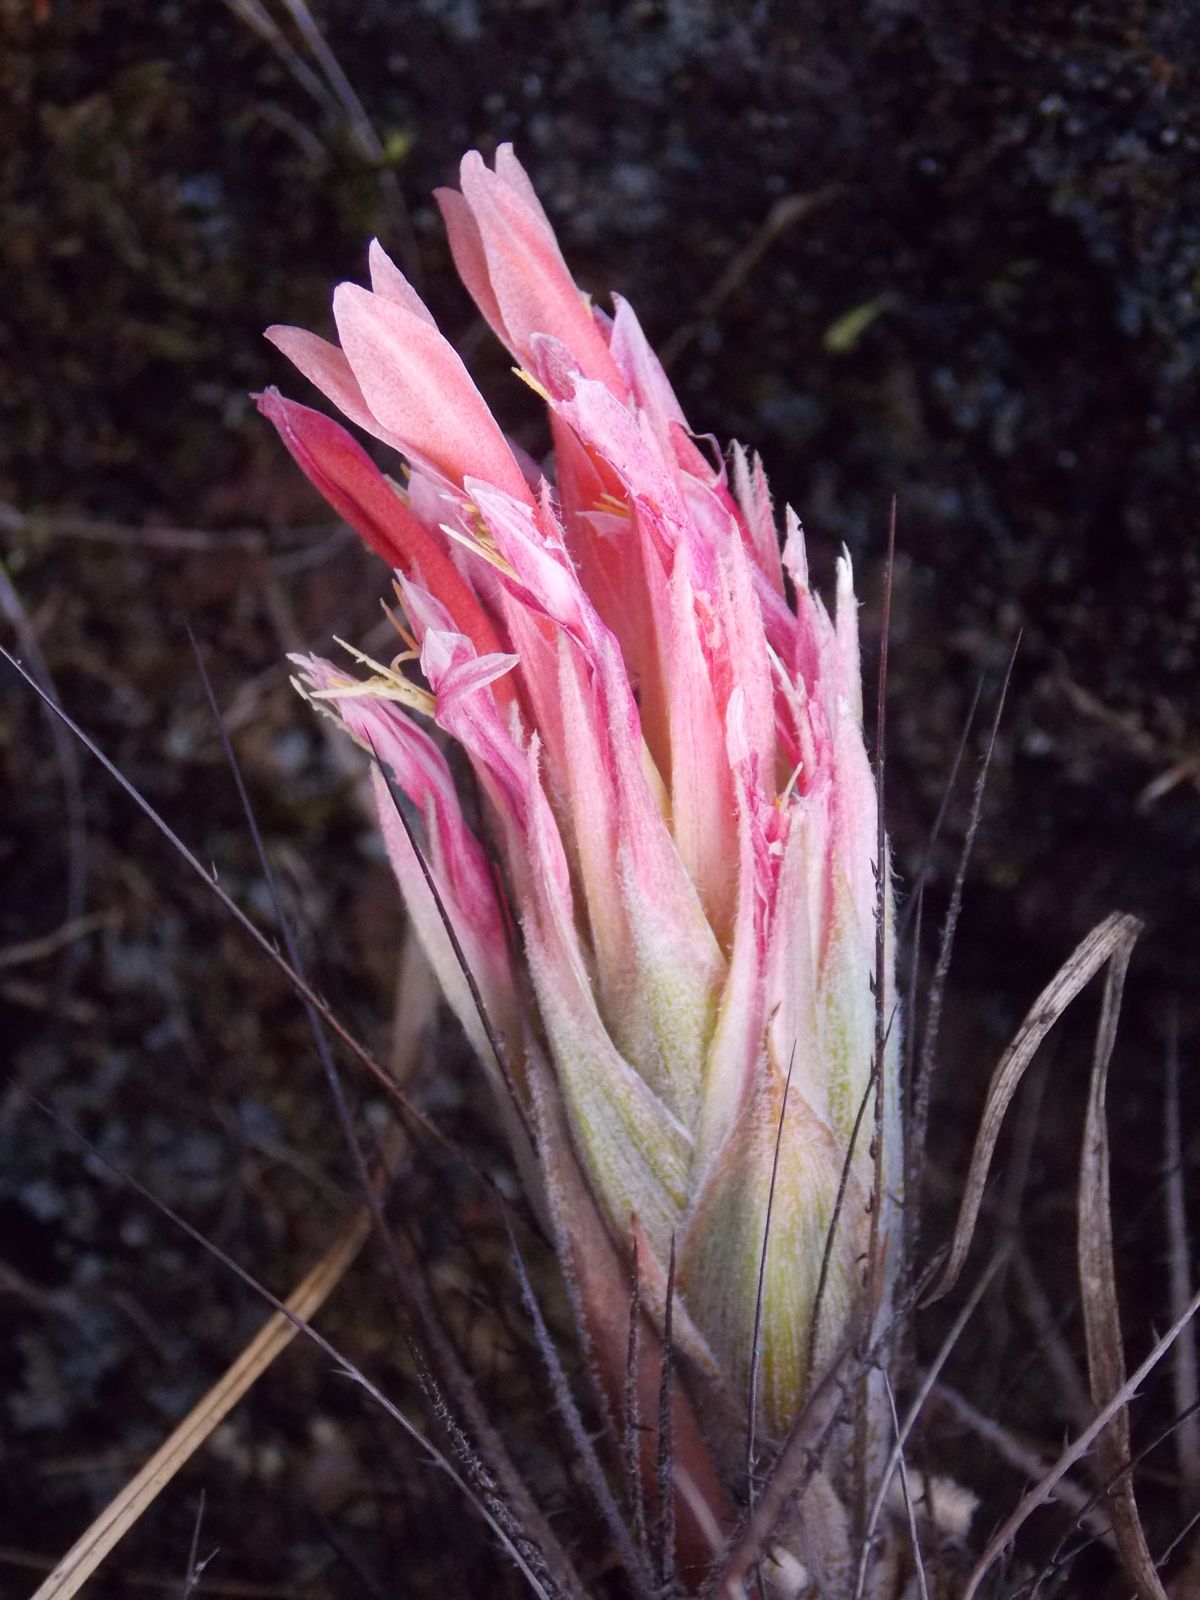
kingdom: Plantae
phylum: Tracheophyta
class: Liliopsida
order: Poales
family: Bromeliaceae
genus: Pitcairnia
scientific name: Pitcairnia heterophylla
